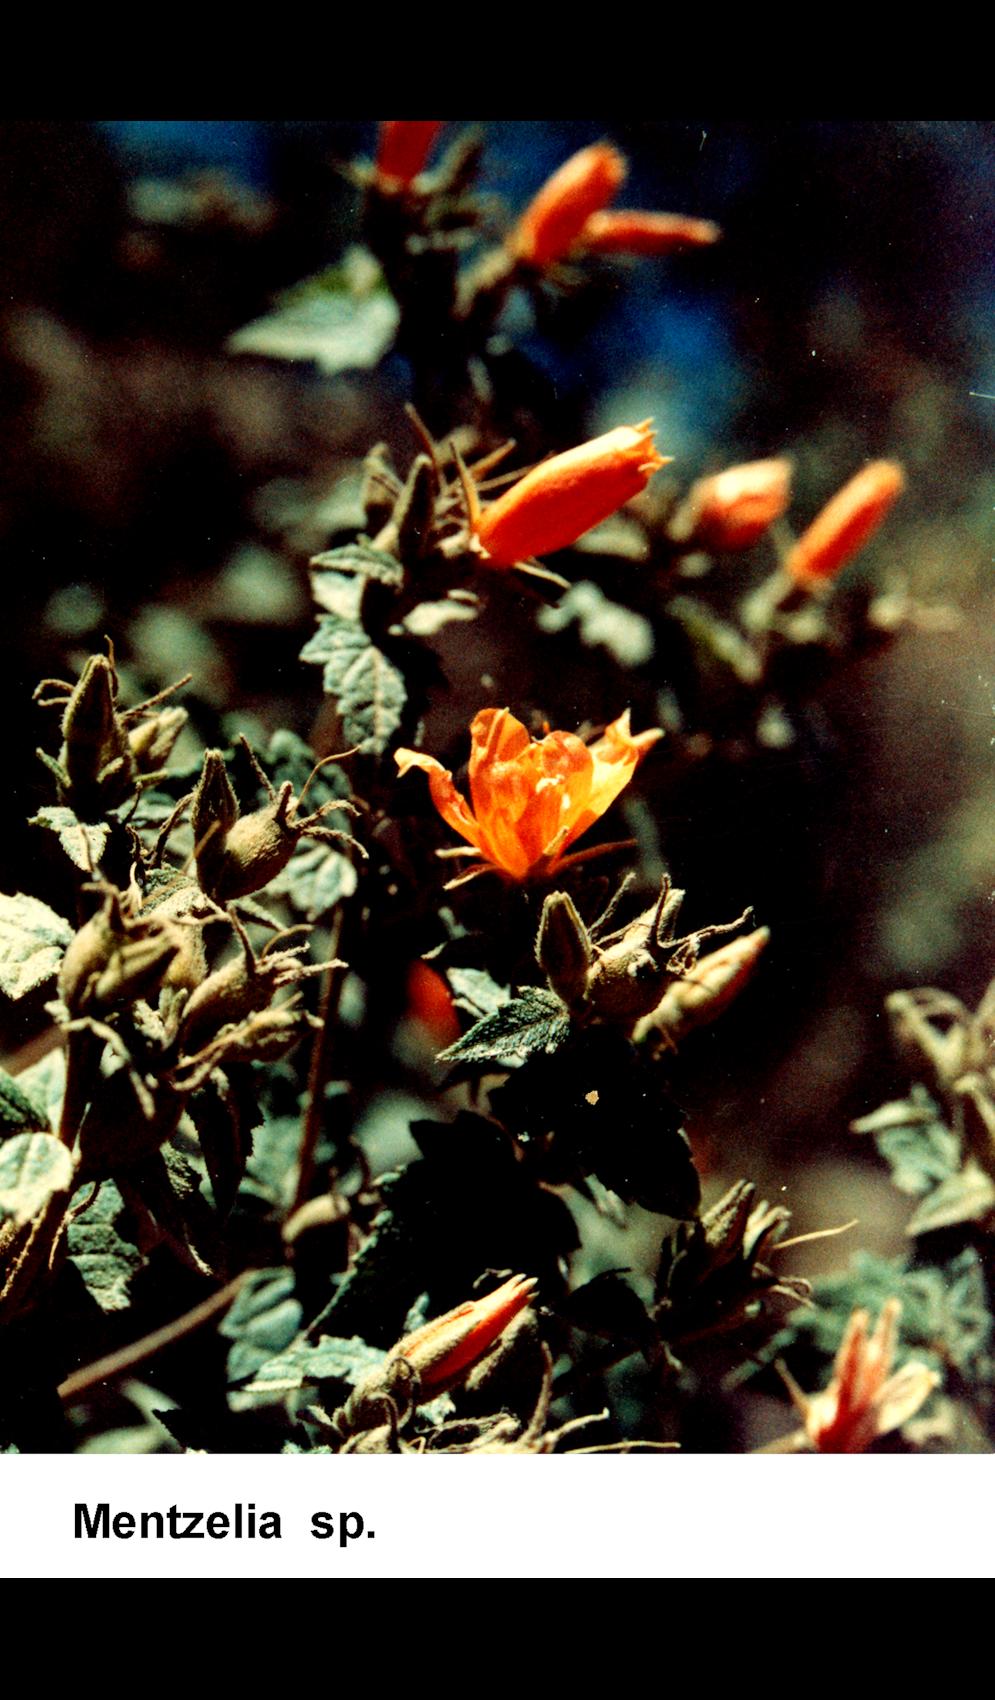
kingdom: Plantae
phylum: Tracheophyta
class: Magnoliopsida
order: Cornales
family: Loasaceae
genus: Mentzelia
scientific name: Mentzelia
